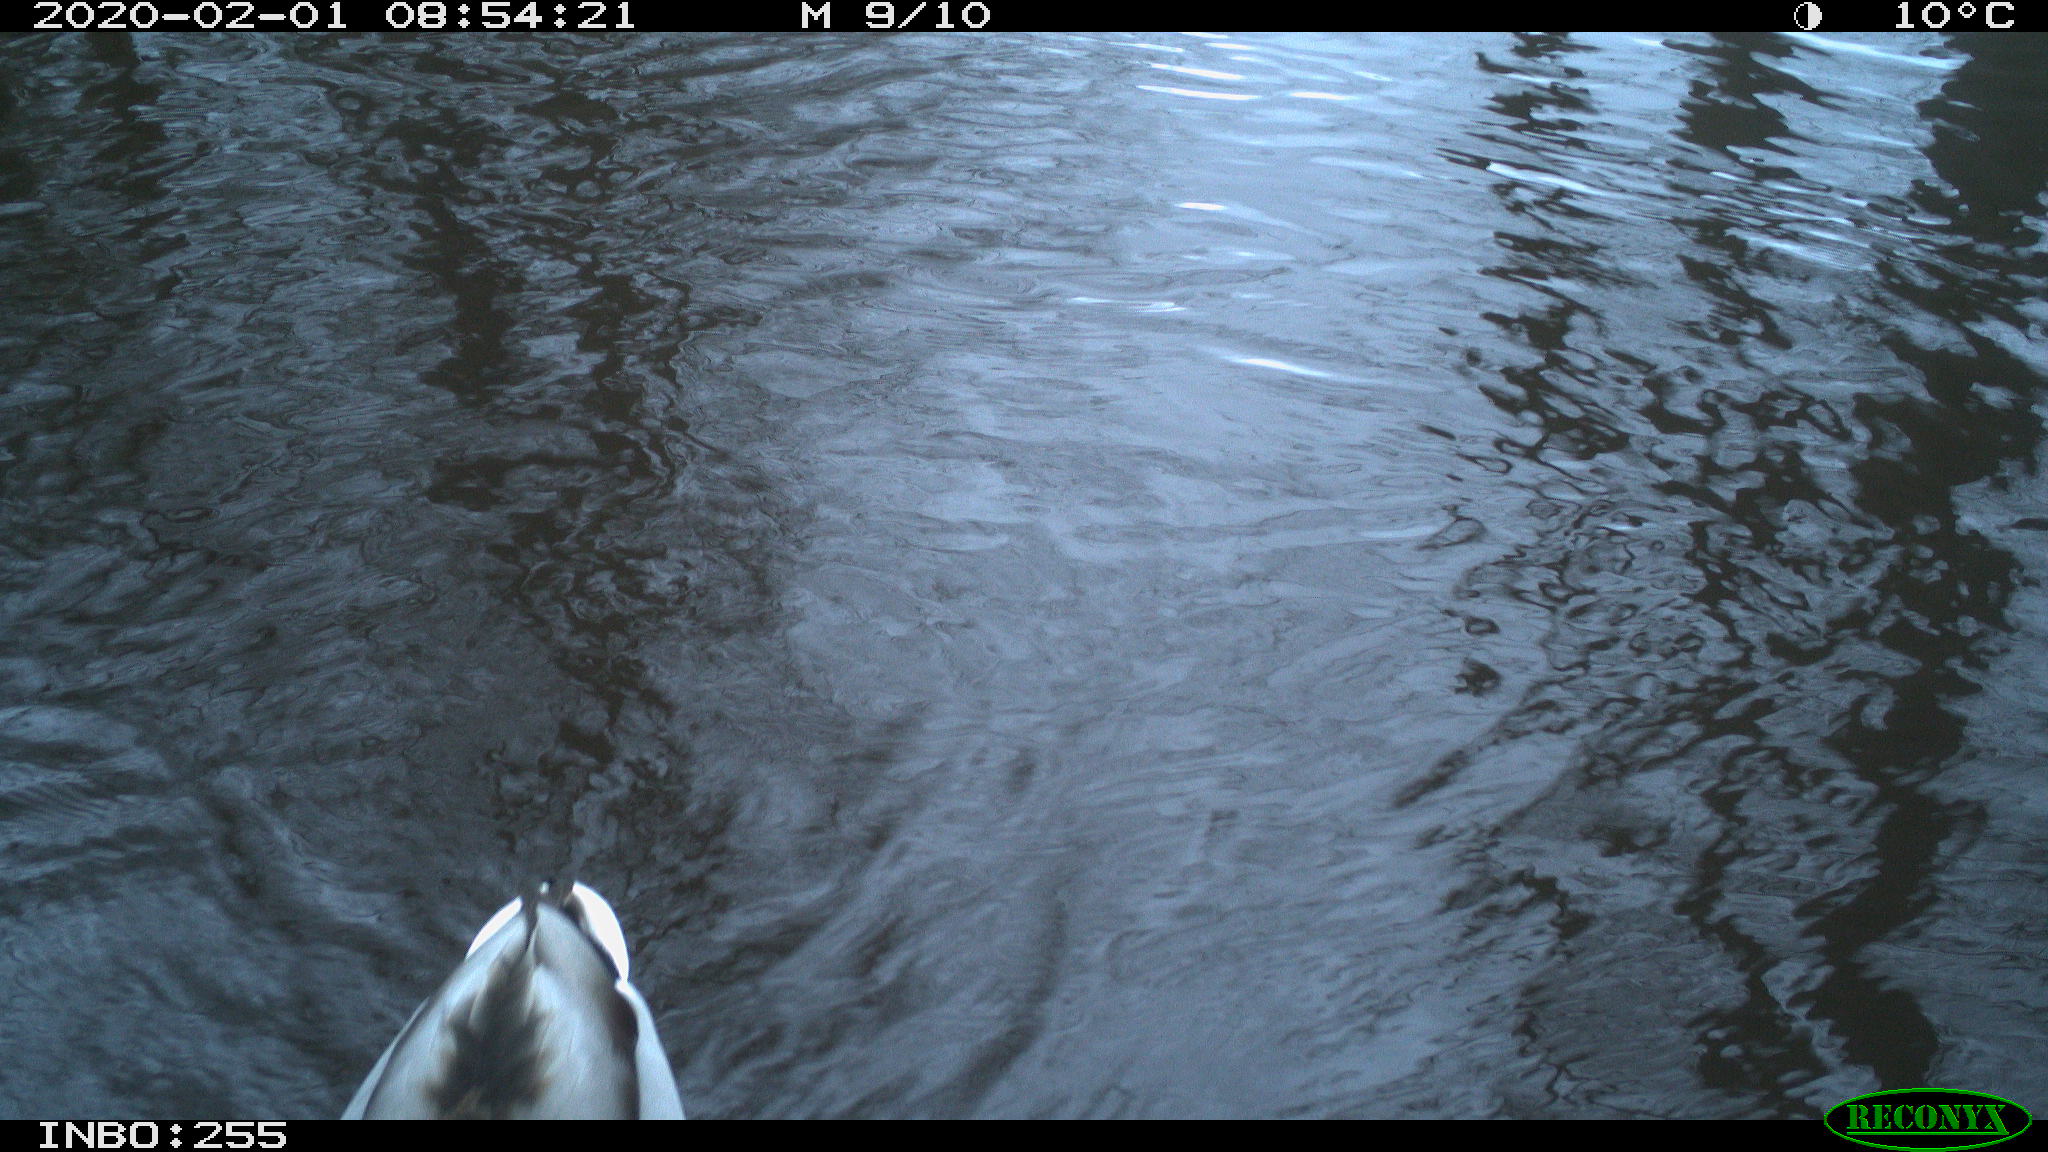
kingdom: Animalia
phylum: Chordata
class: Aves
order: Anseriformes
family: Anatidae
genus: Anas
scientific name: Anas platyrhynchos
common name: Mallard
